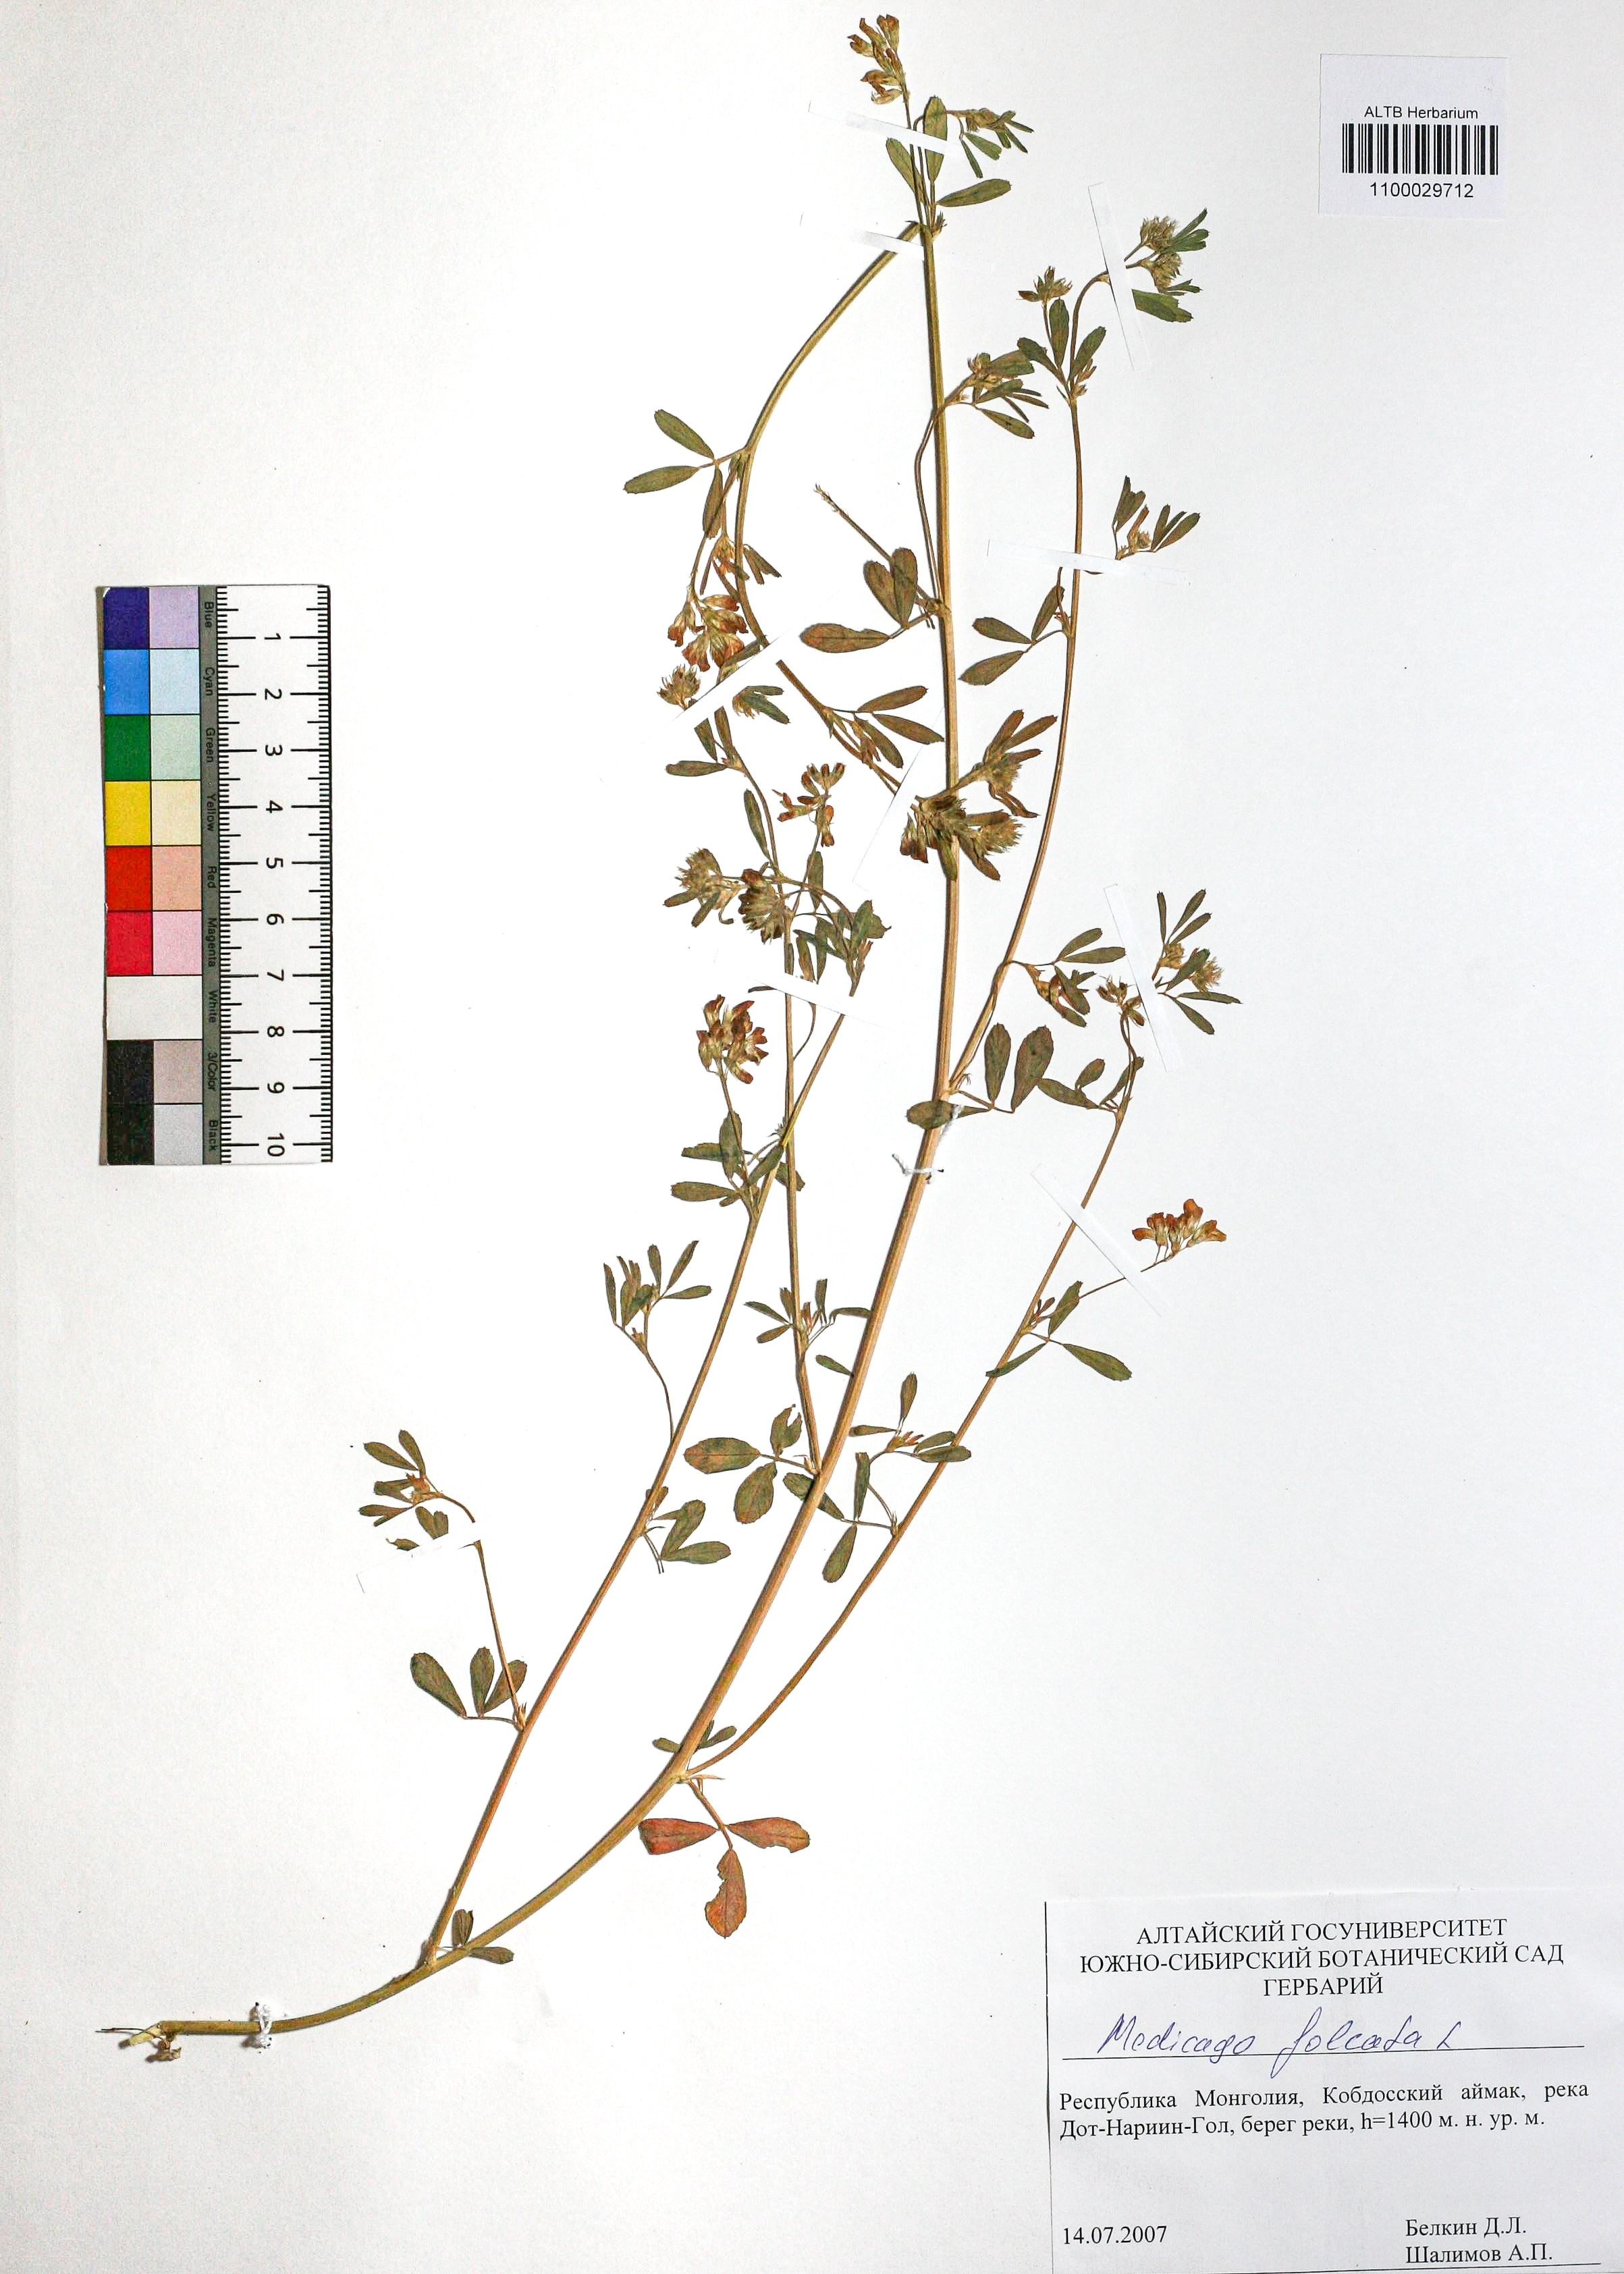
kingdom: Plantae
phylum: Tracheophyta
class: Magnoliopsida
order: Fabales
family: Fabaceae
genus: Medicago
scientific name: Medicago falcata
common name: Sickle medick
